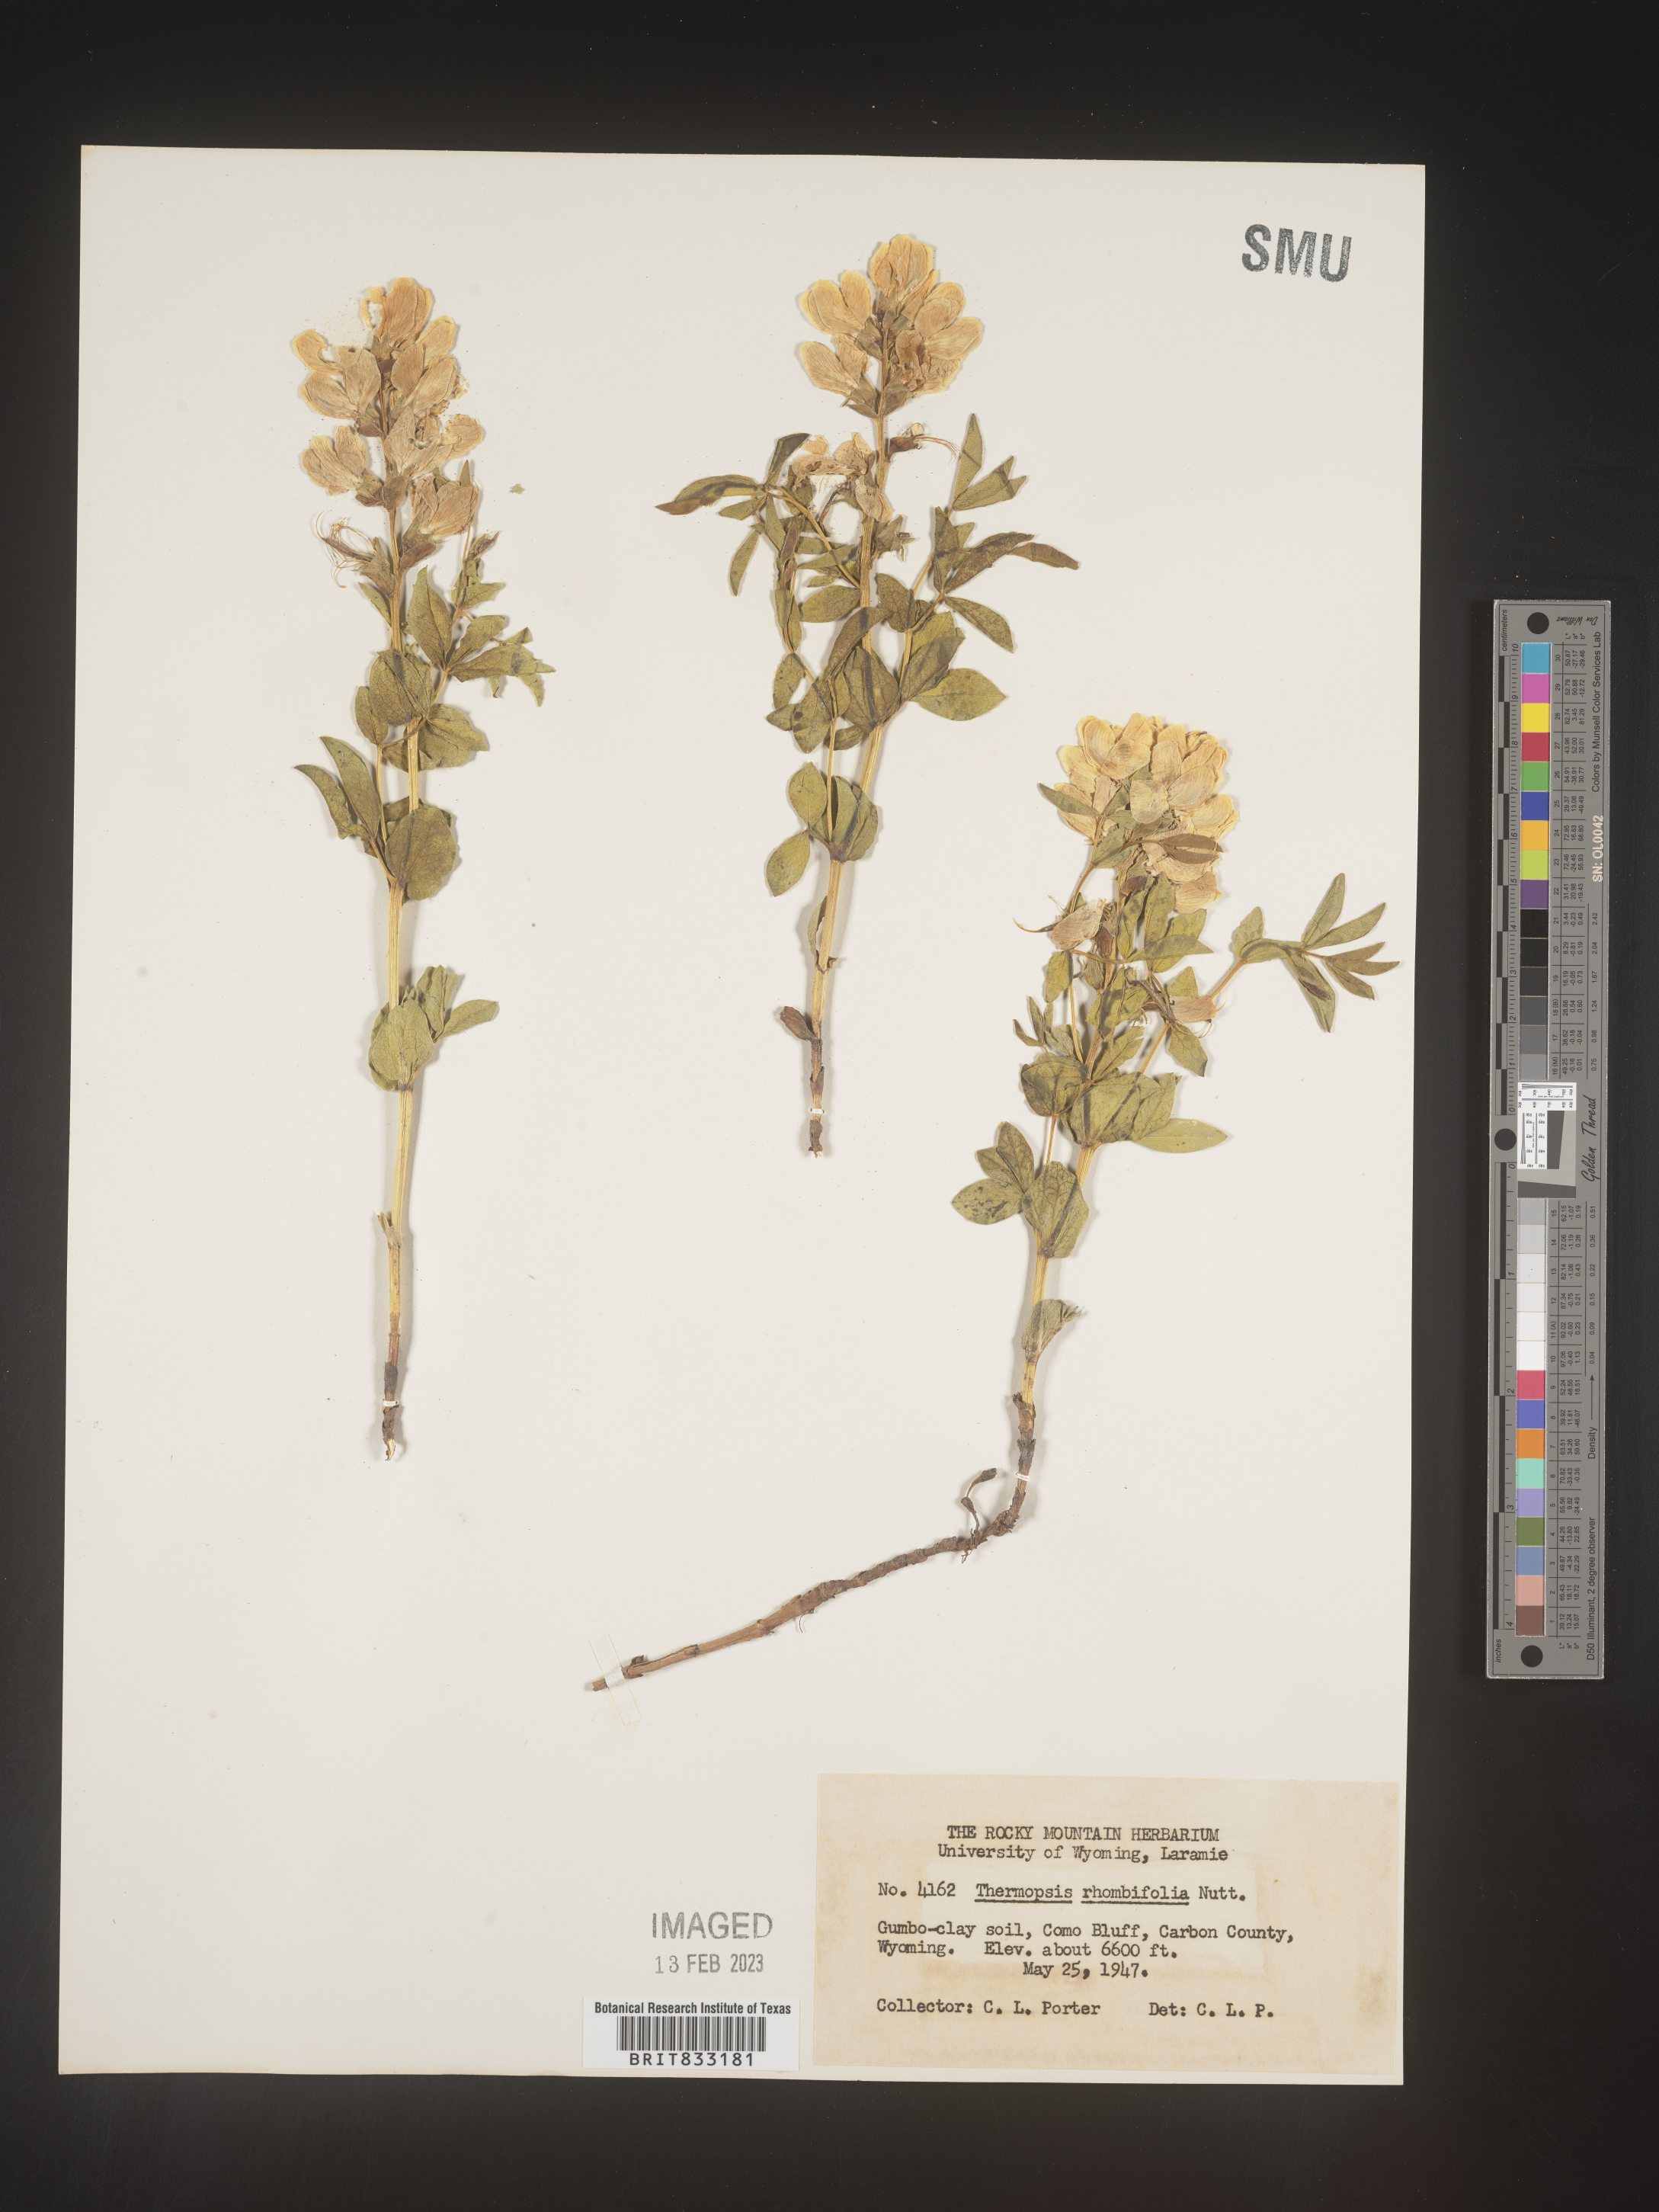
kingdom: Plantae
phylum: Tracheophyta
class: Magnoliopsida
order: Fabales
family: Fabaceae
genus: Thermopsis
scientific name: Thermopsis rhombifolia
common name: Circle-pod-pea
